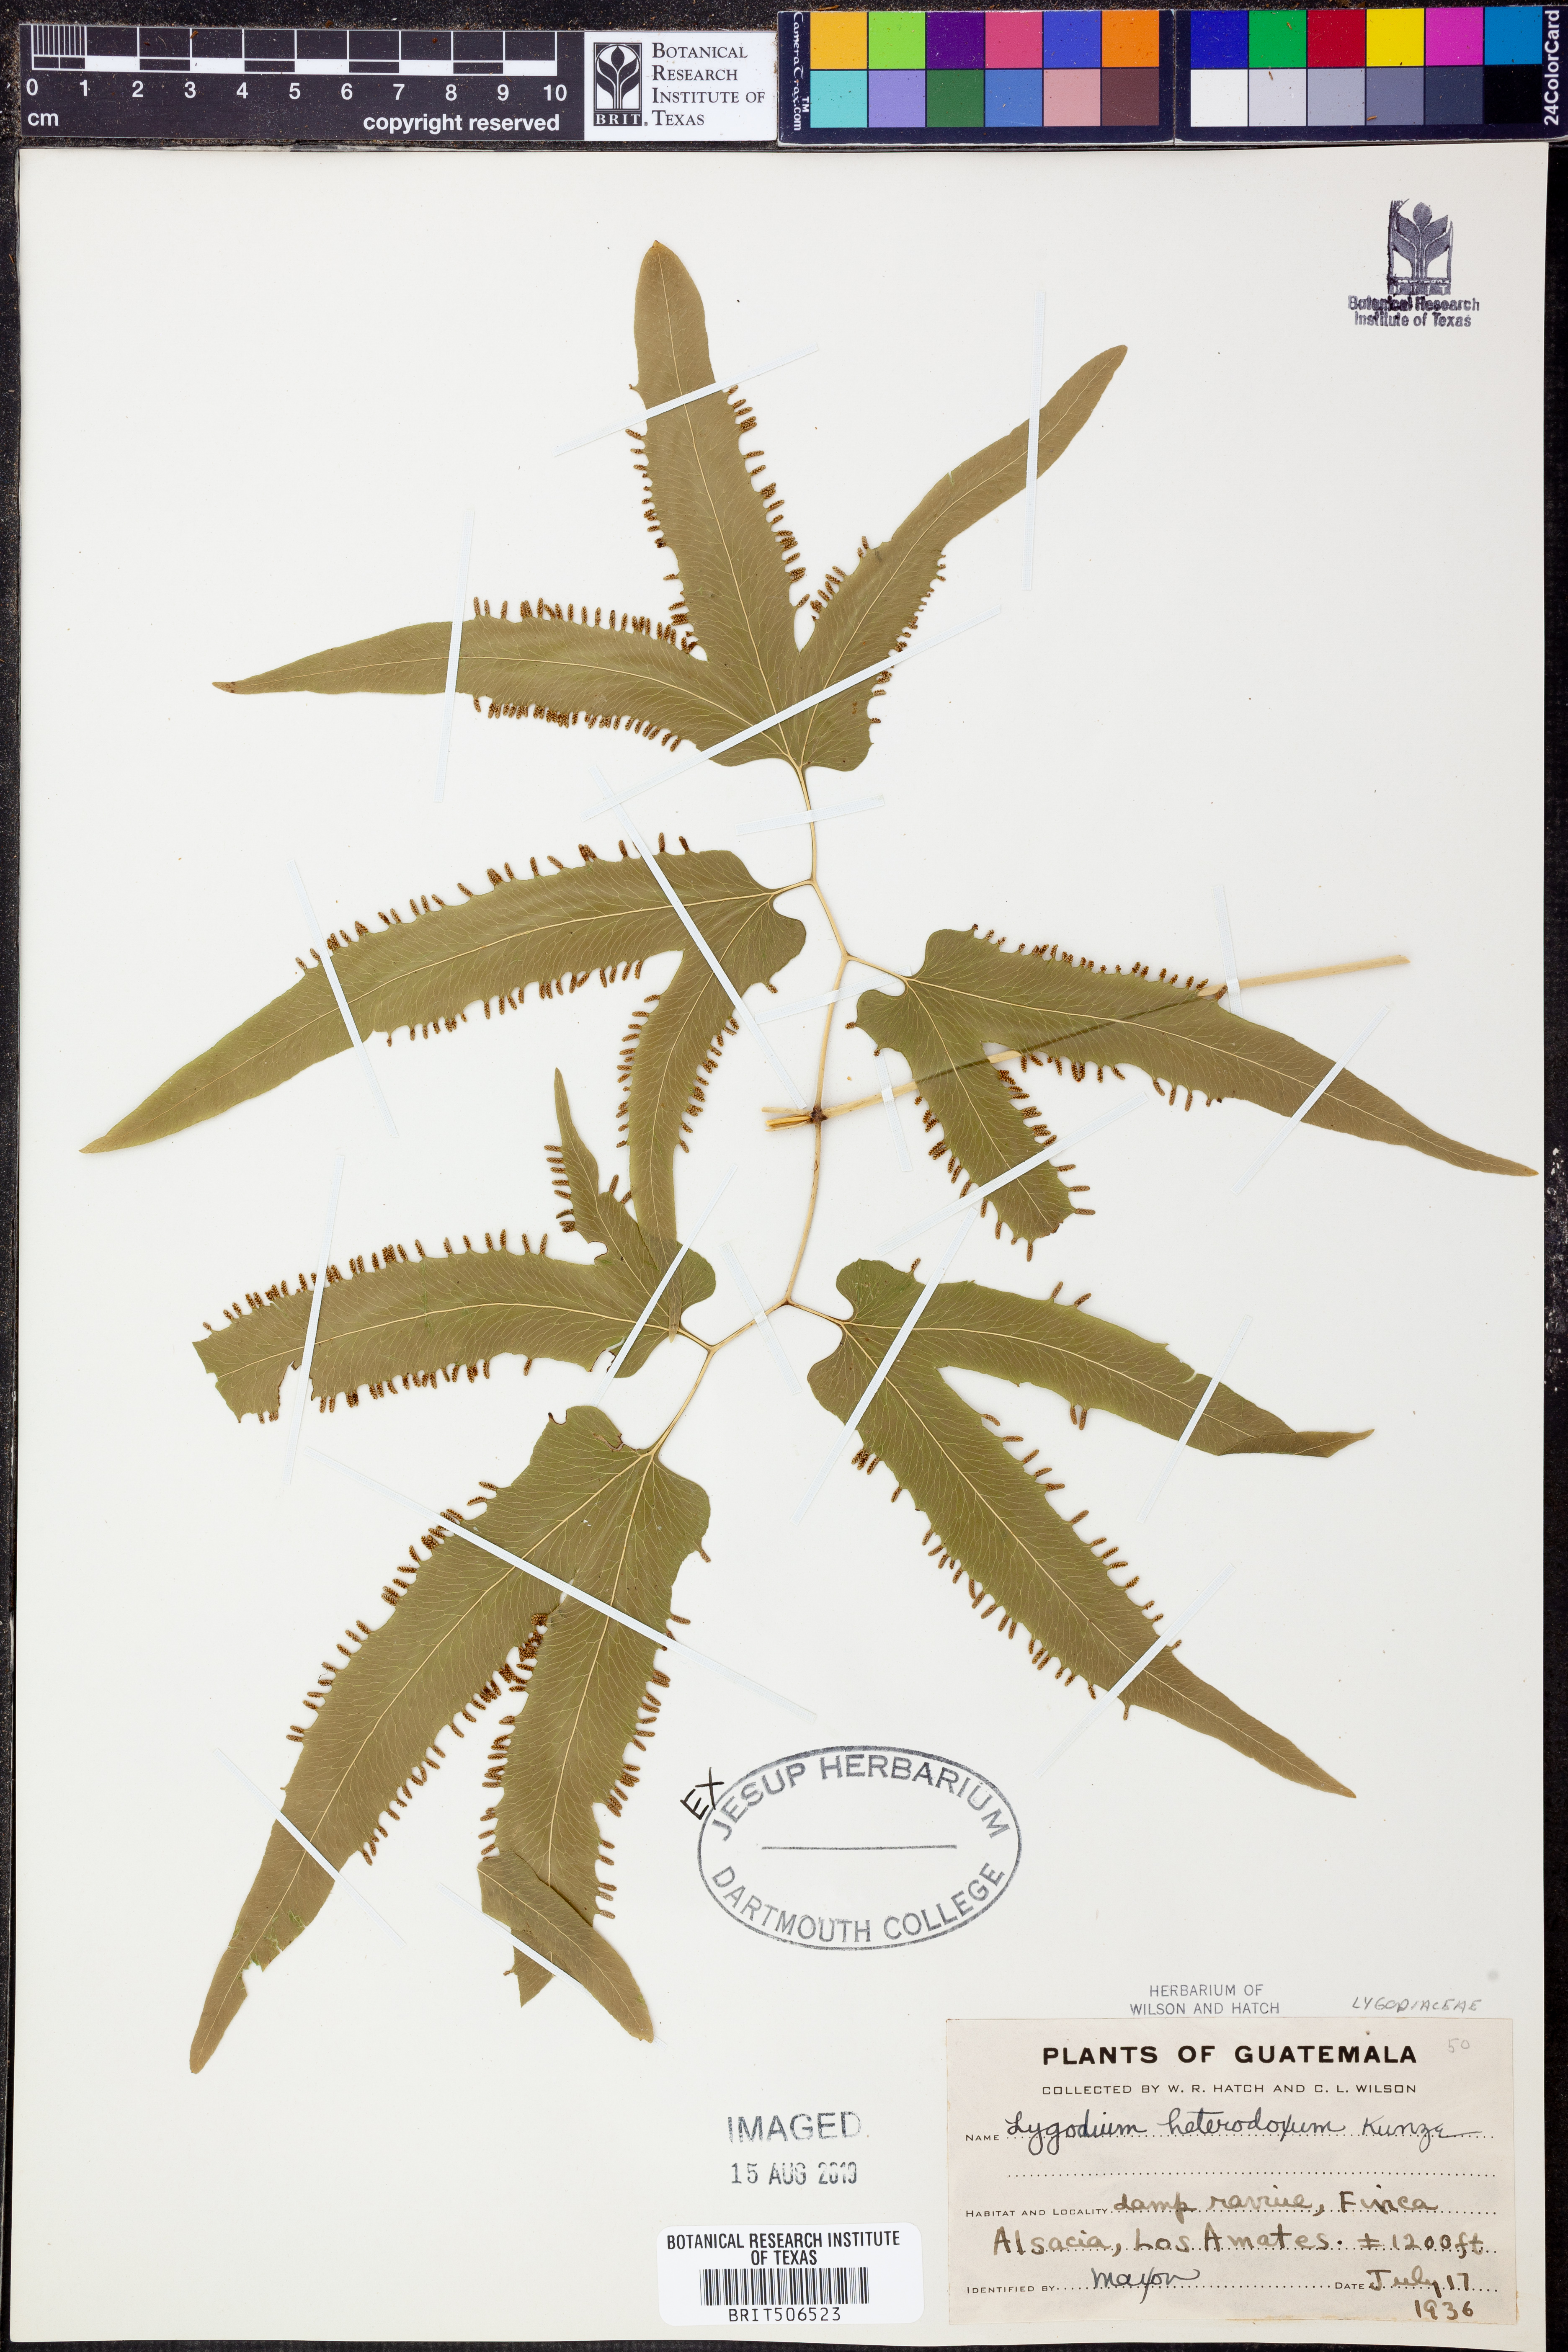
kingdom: Plantae
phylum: Tracheophyta
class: Polypodiopsida
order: Schizaeales
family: Lygodiaceae
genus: Lygodium
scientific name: Lygodium heterodoxum
